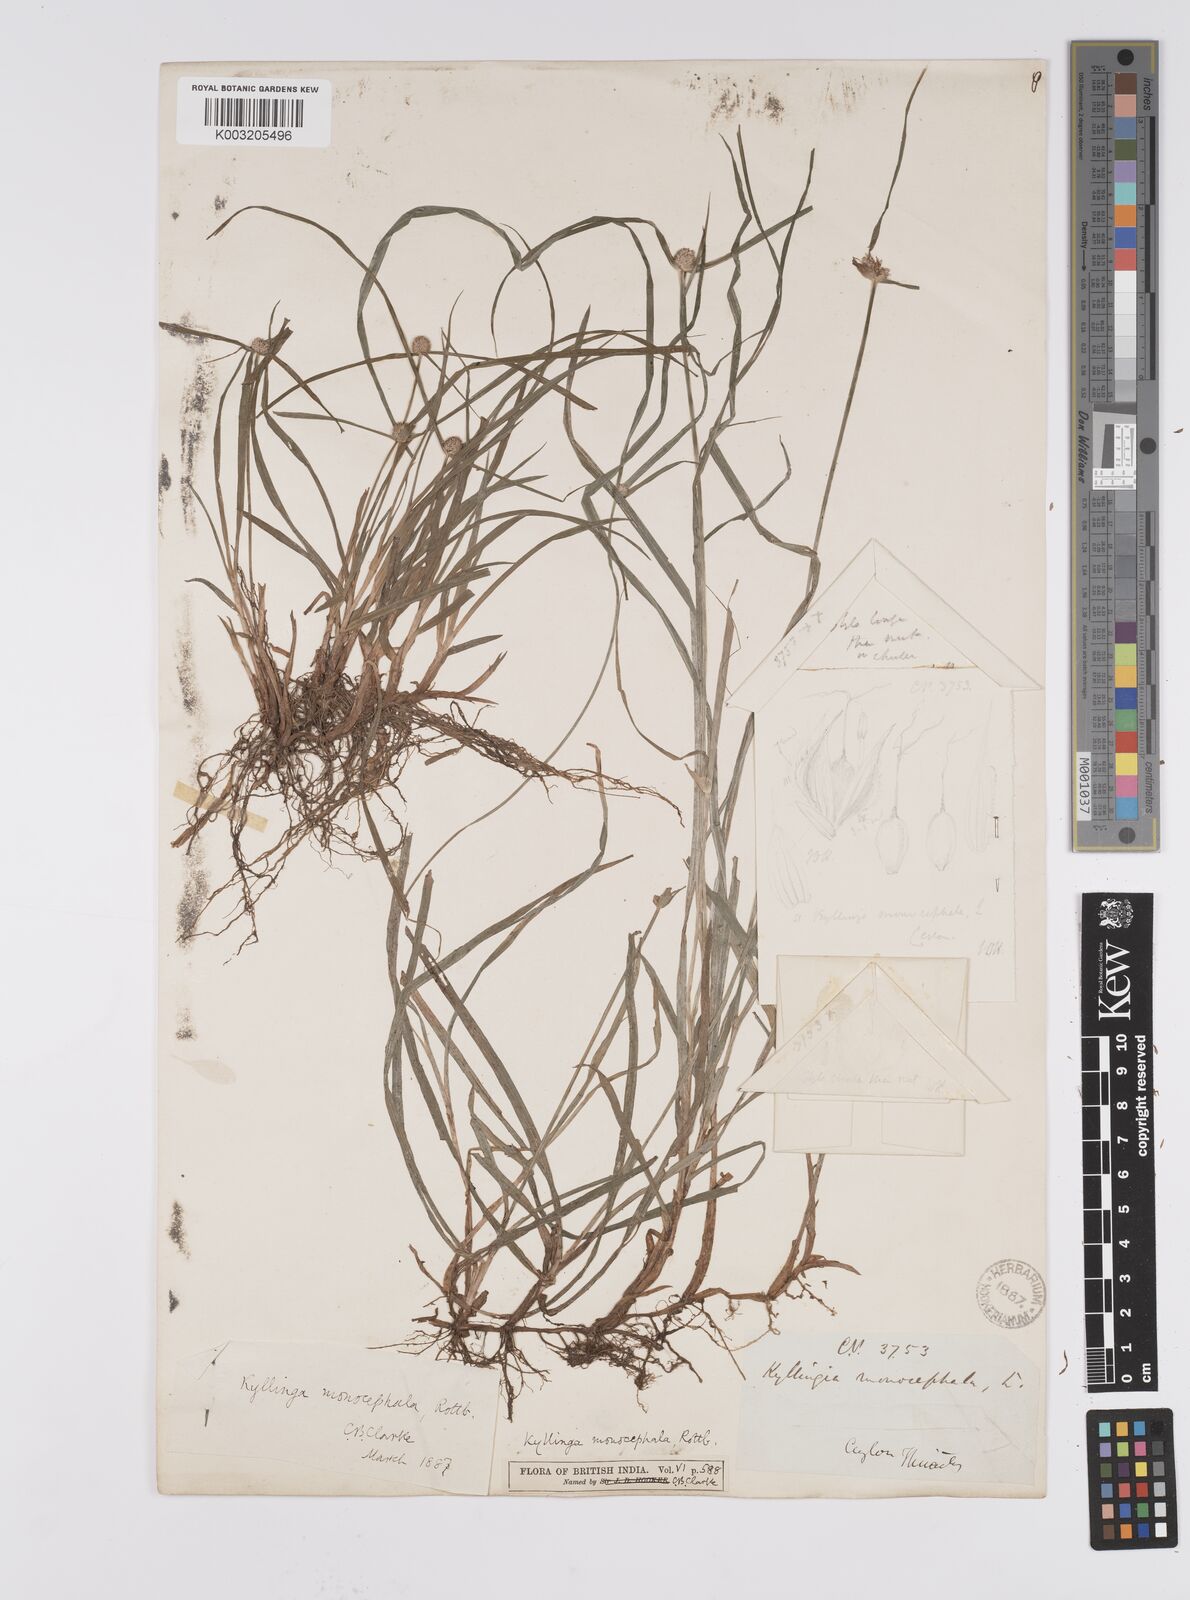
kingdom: Plantae
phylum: Tracheophyta
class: Liliopsida
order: Poales
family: Cyperaceae
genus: Cyperus
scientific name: Cyperus nemoralis
